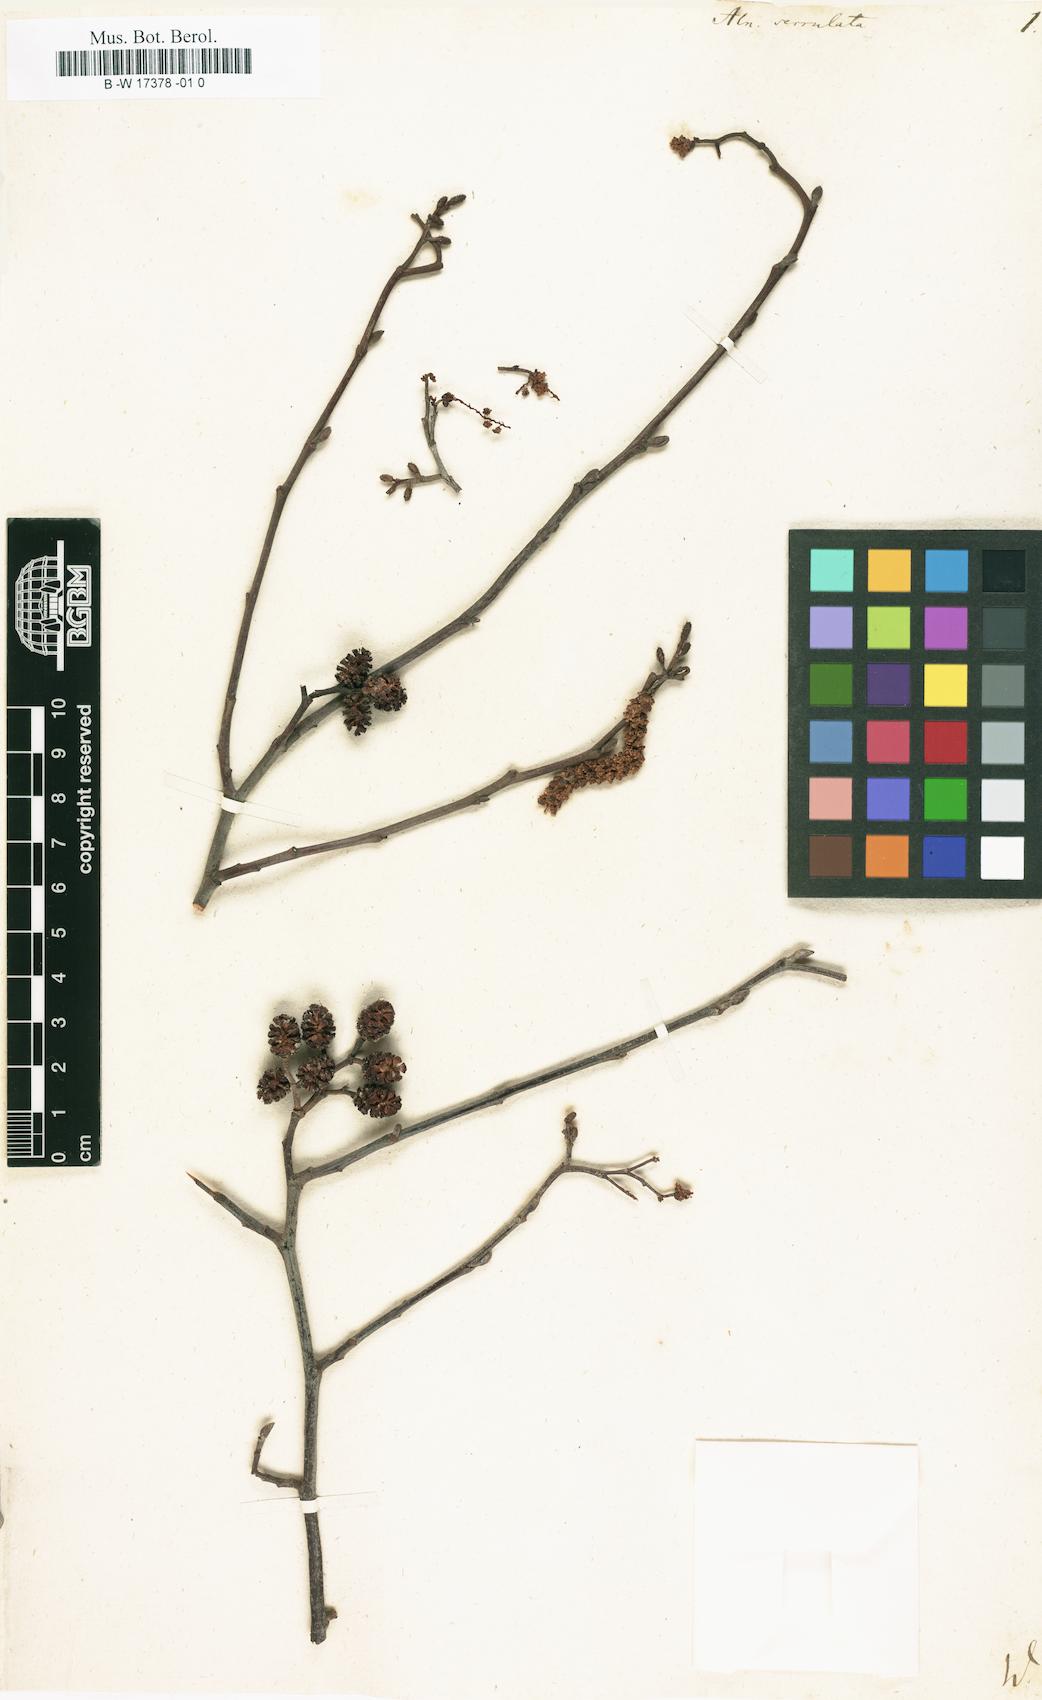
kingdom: Plantae
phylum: Tracheophyta
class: Magnoliopsida
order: Fagales
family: Betulaceae
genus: Alnus
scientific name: Alnus serrulata
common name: Hazel alder
